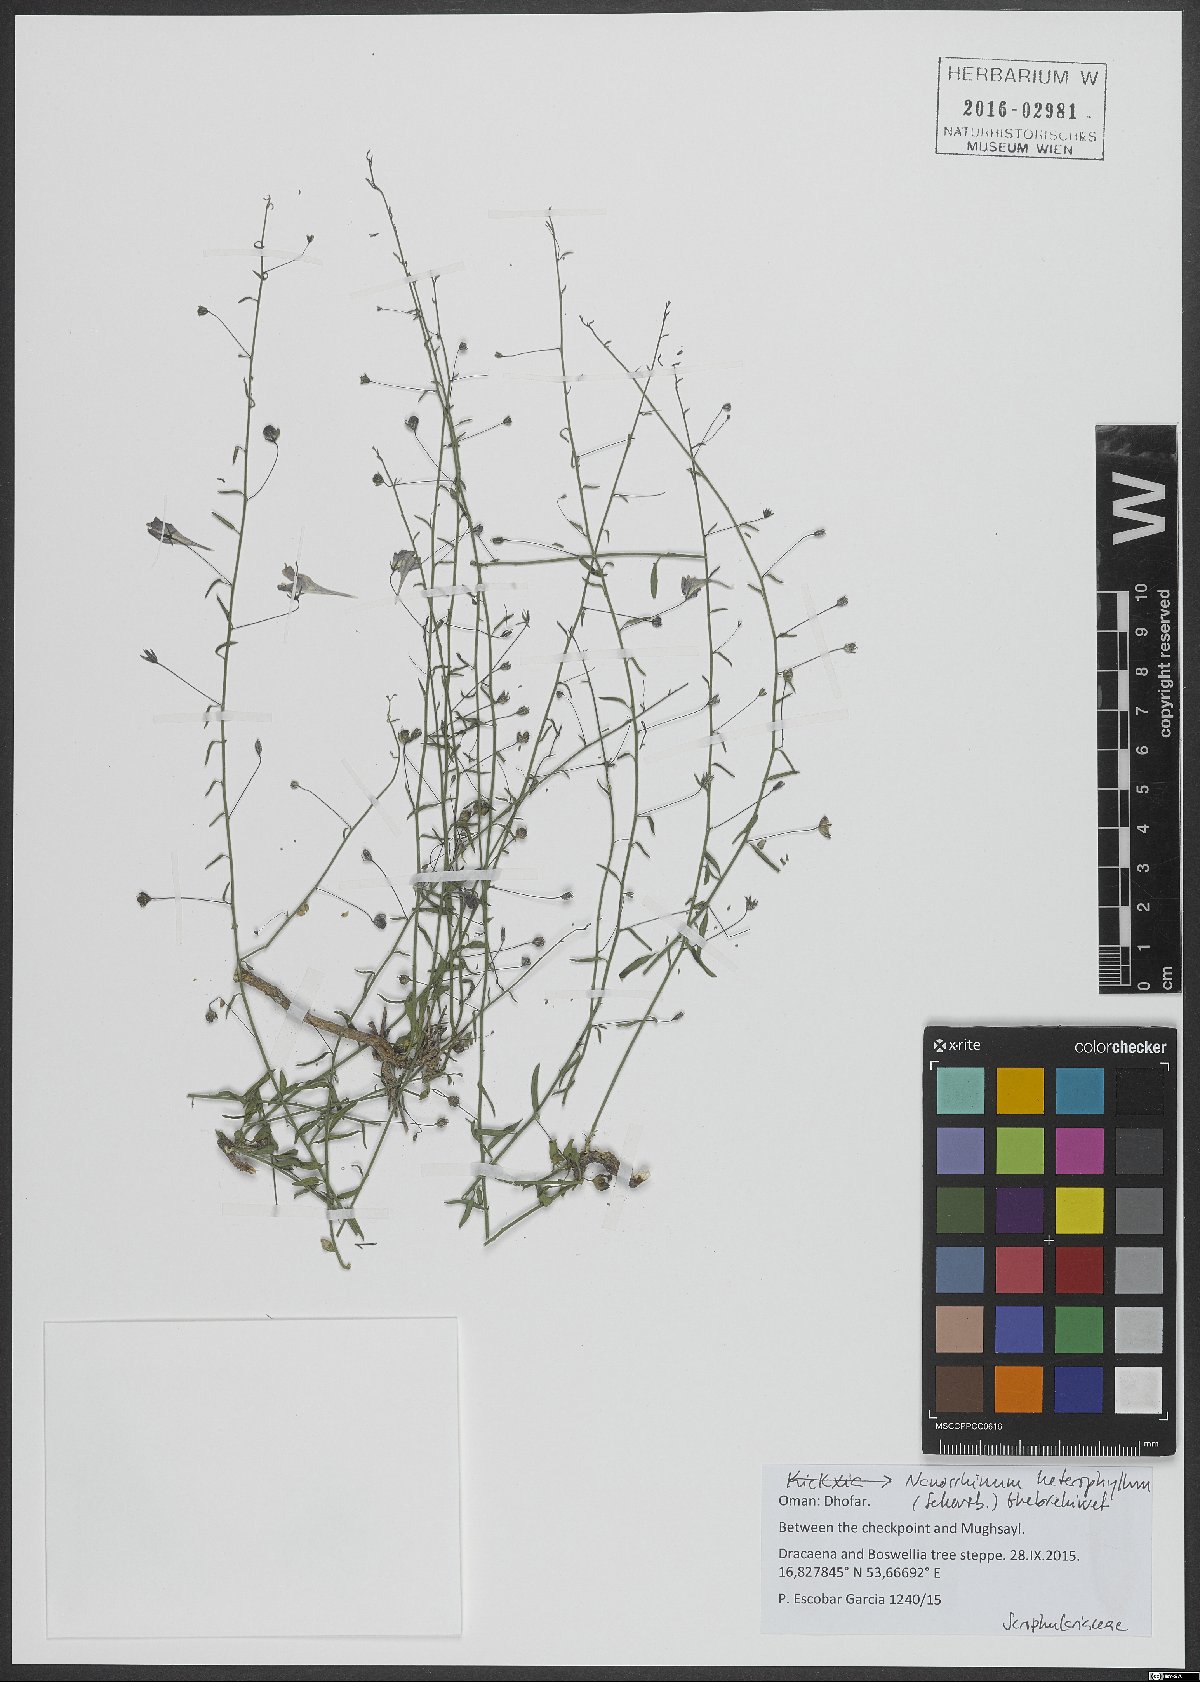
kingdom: Plantae
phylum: Tracheophyta
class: Magnoliopsida
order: Lamiales
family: Plantaginaceae
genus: Nanorrhinum
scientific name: Nanorrhinum heterophyllum
